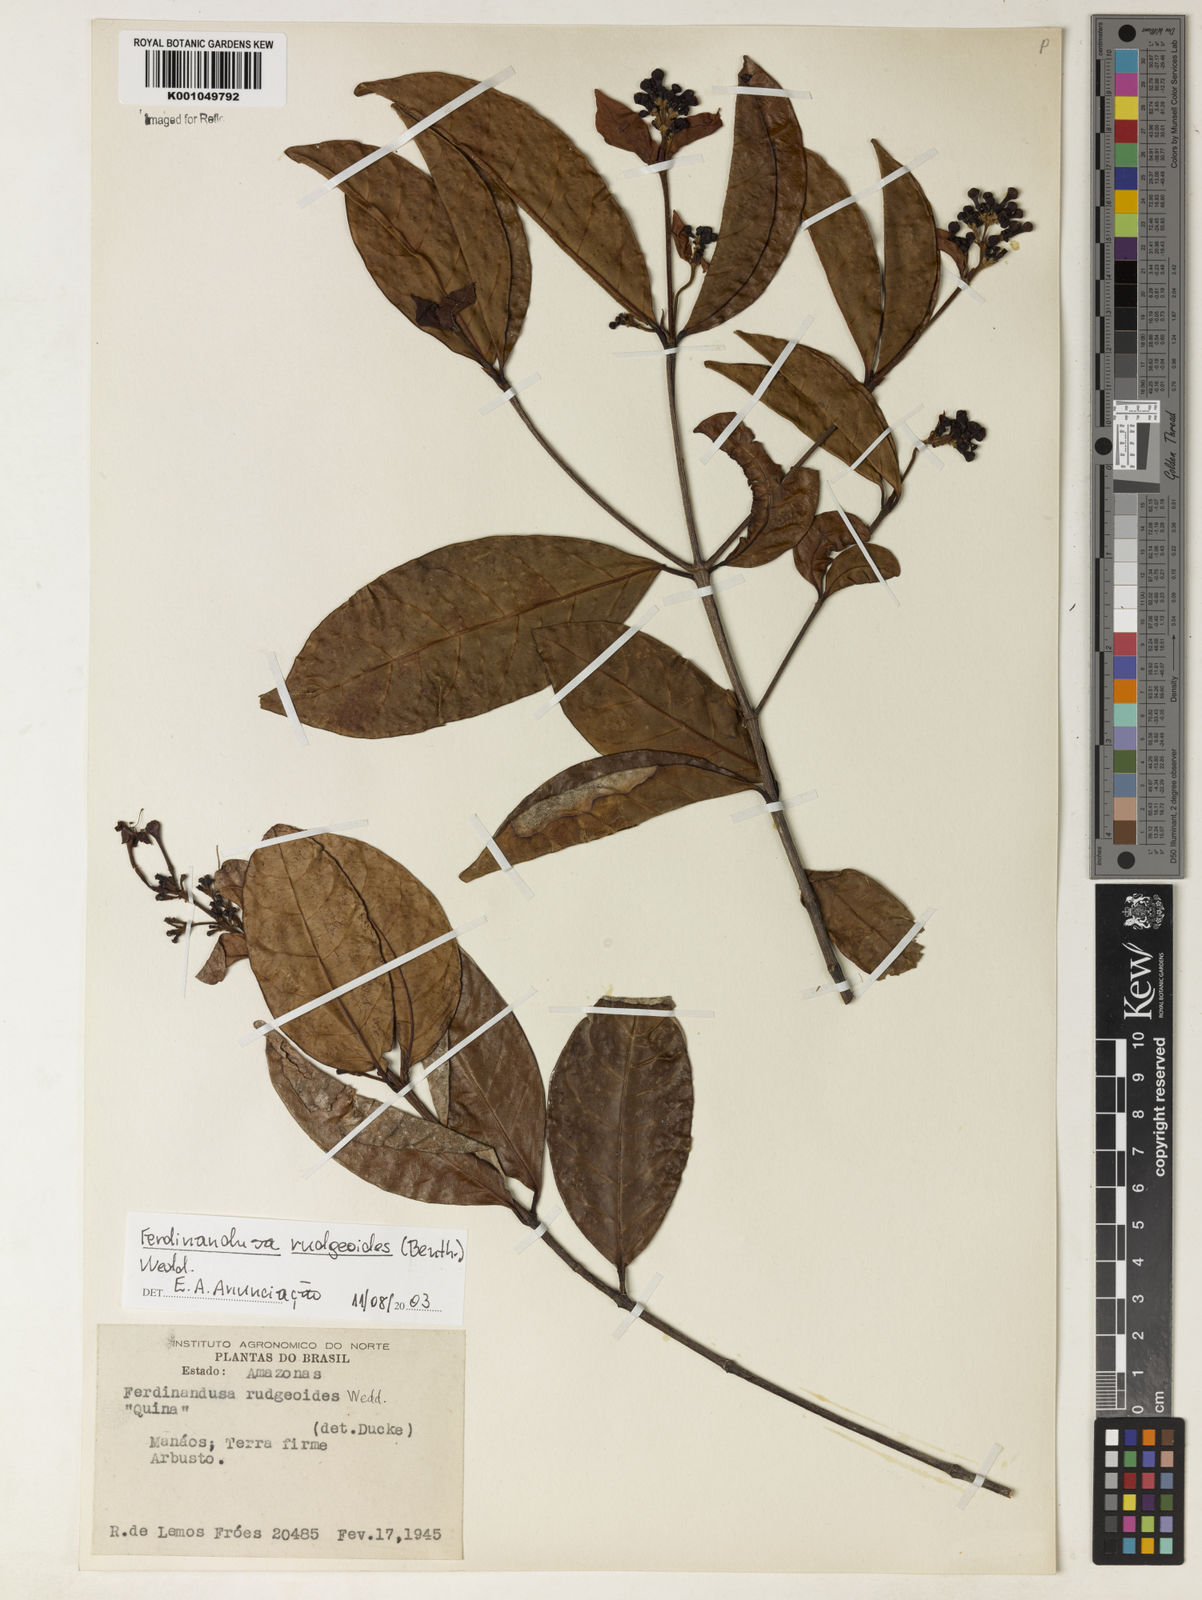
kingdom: Plantae
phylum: Tracheophyta
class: Magnoliopsida
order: Gentianales
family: Rubiaceae
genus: Ferdinandusa
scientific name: Ferdinandusa rudgeoides
